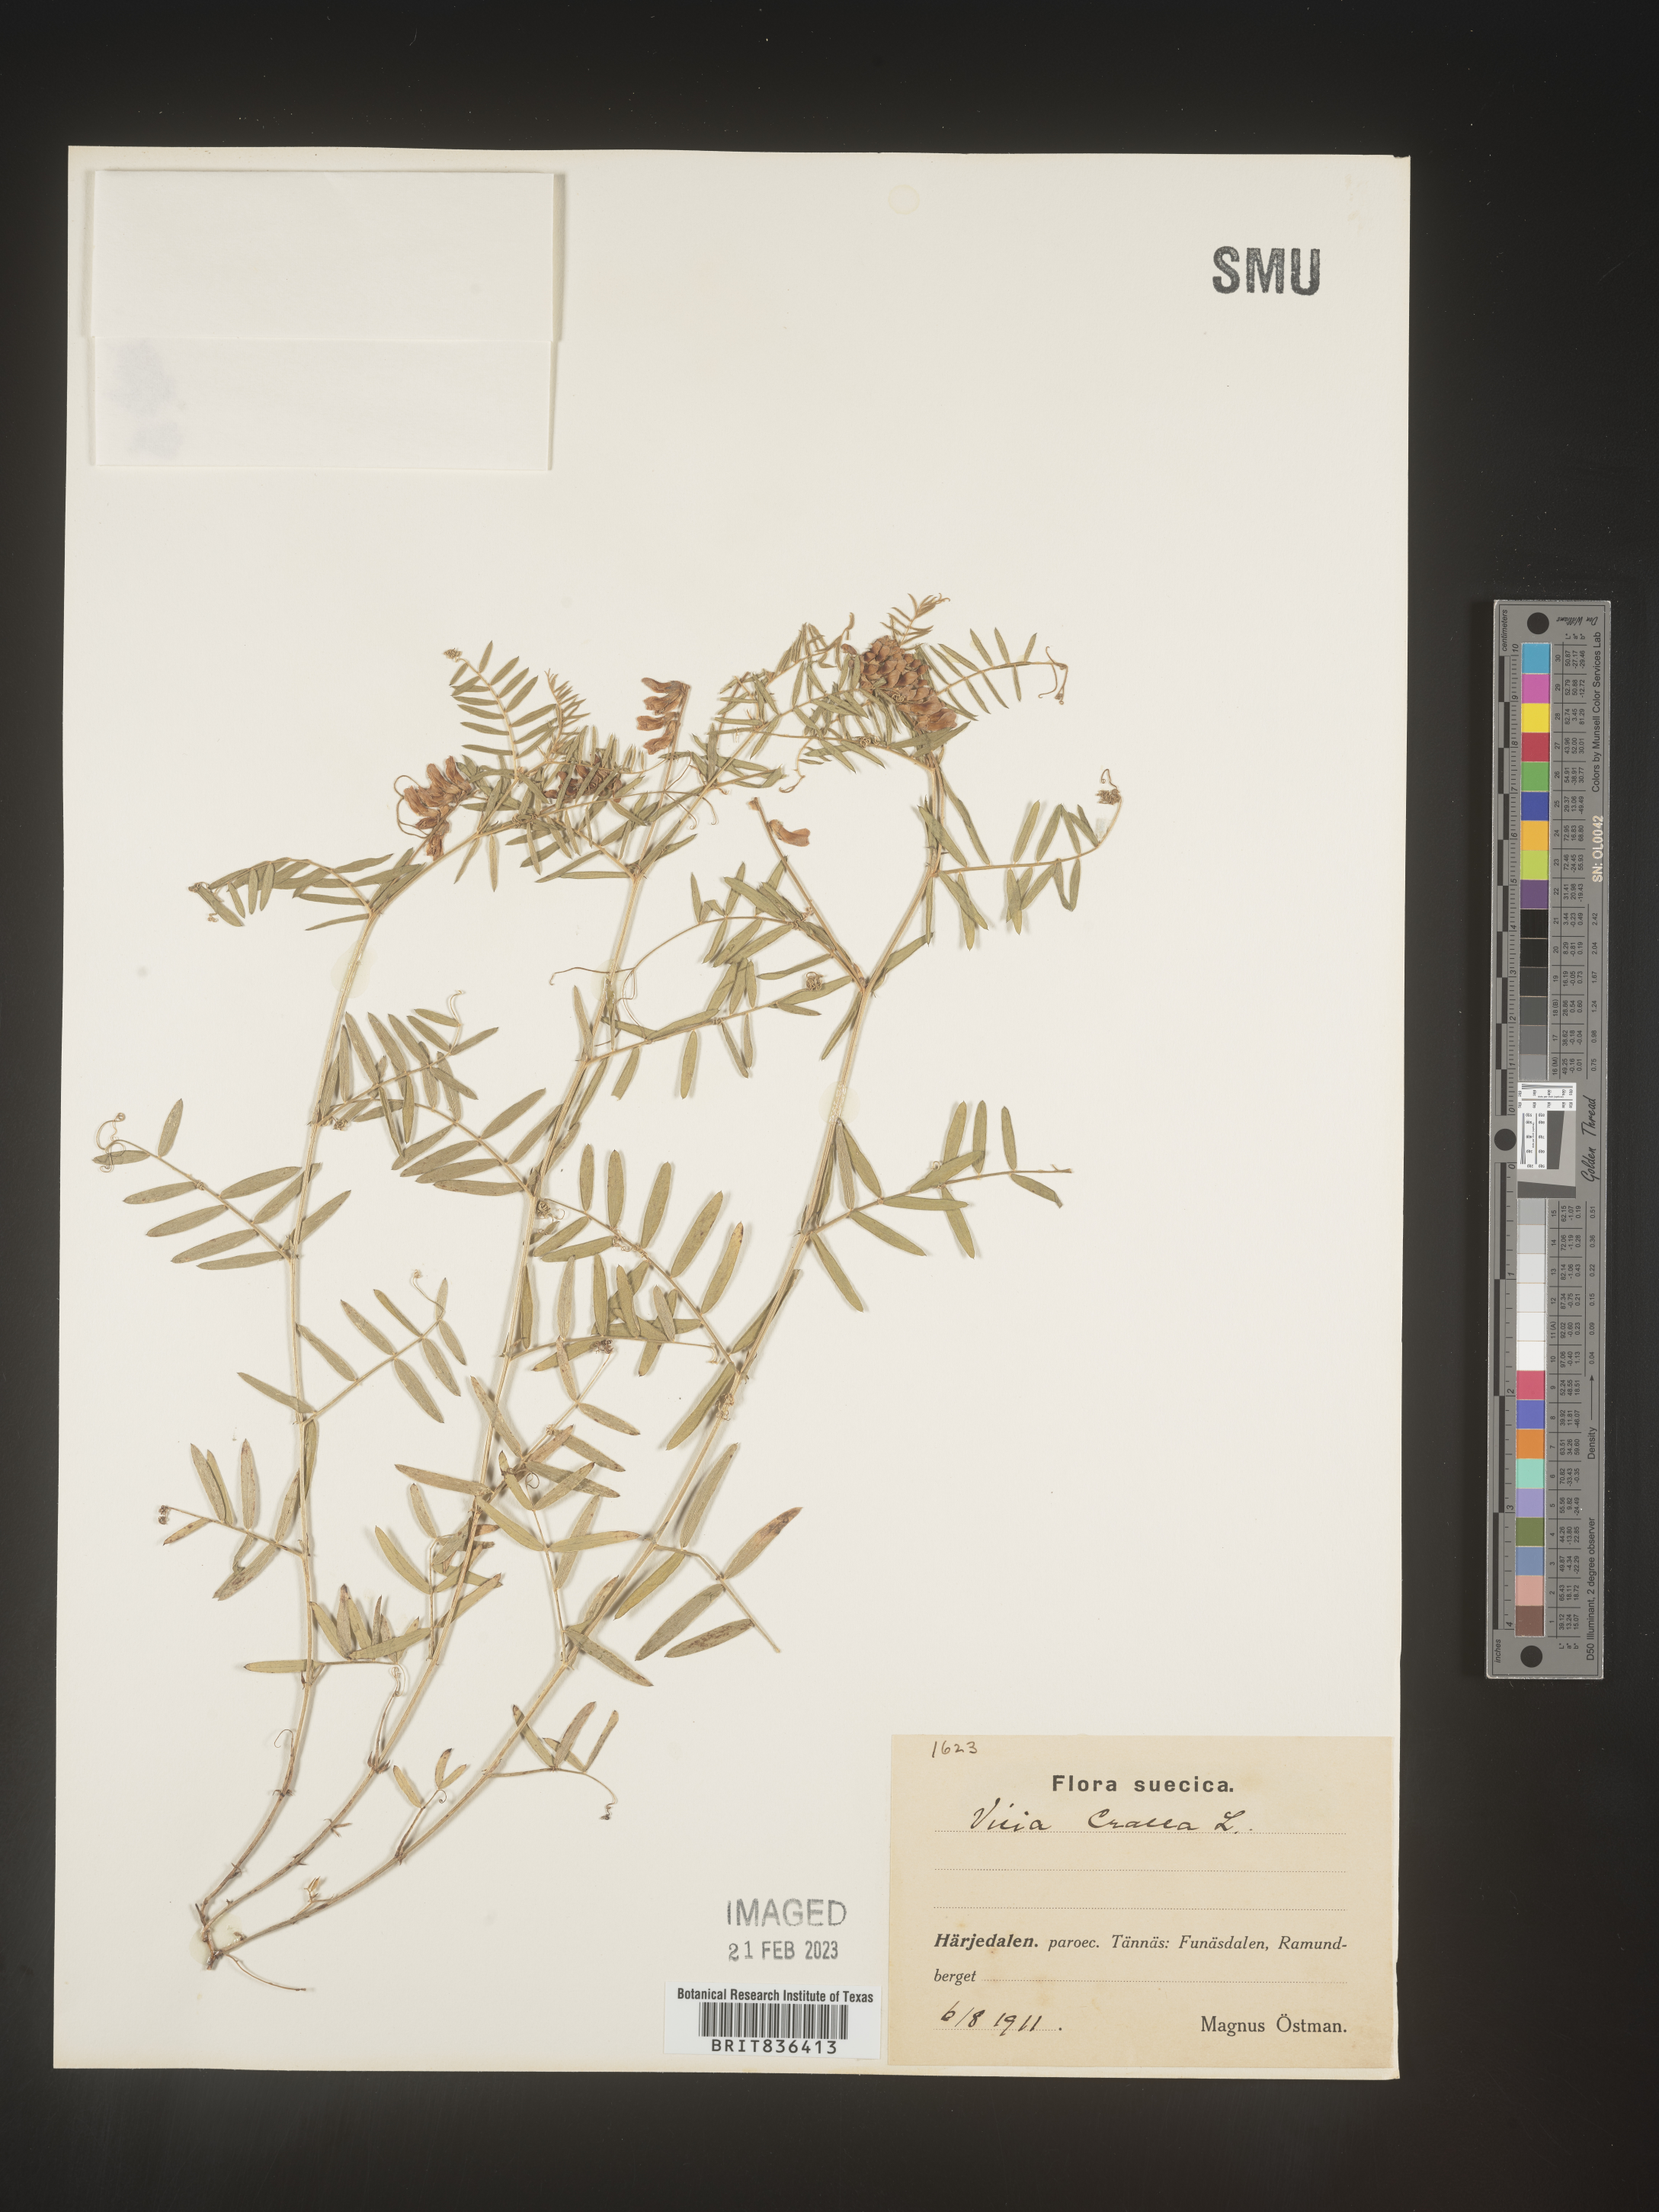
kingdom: Plantae
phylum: Tracheophyta
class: Magnoliopsida
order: Fabales
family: Fabaceae
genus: Vicia
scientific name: Vicia
